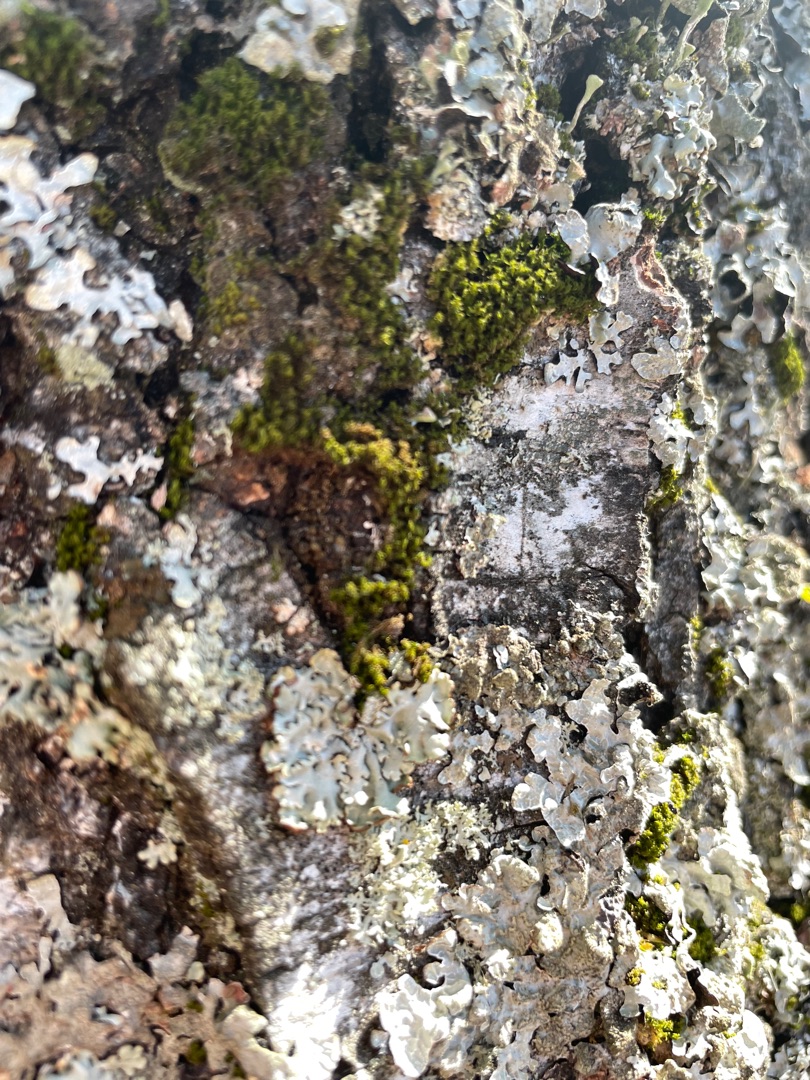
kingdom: Plantae
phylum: Bryophyta
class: Bryopsida
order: Dicranales
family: Rhabdoweisiaceae
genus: Dicranoweisia
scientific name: Dicranoweisia cirrata
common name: Almindelig krøltuemos
